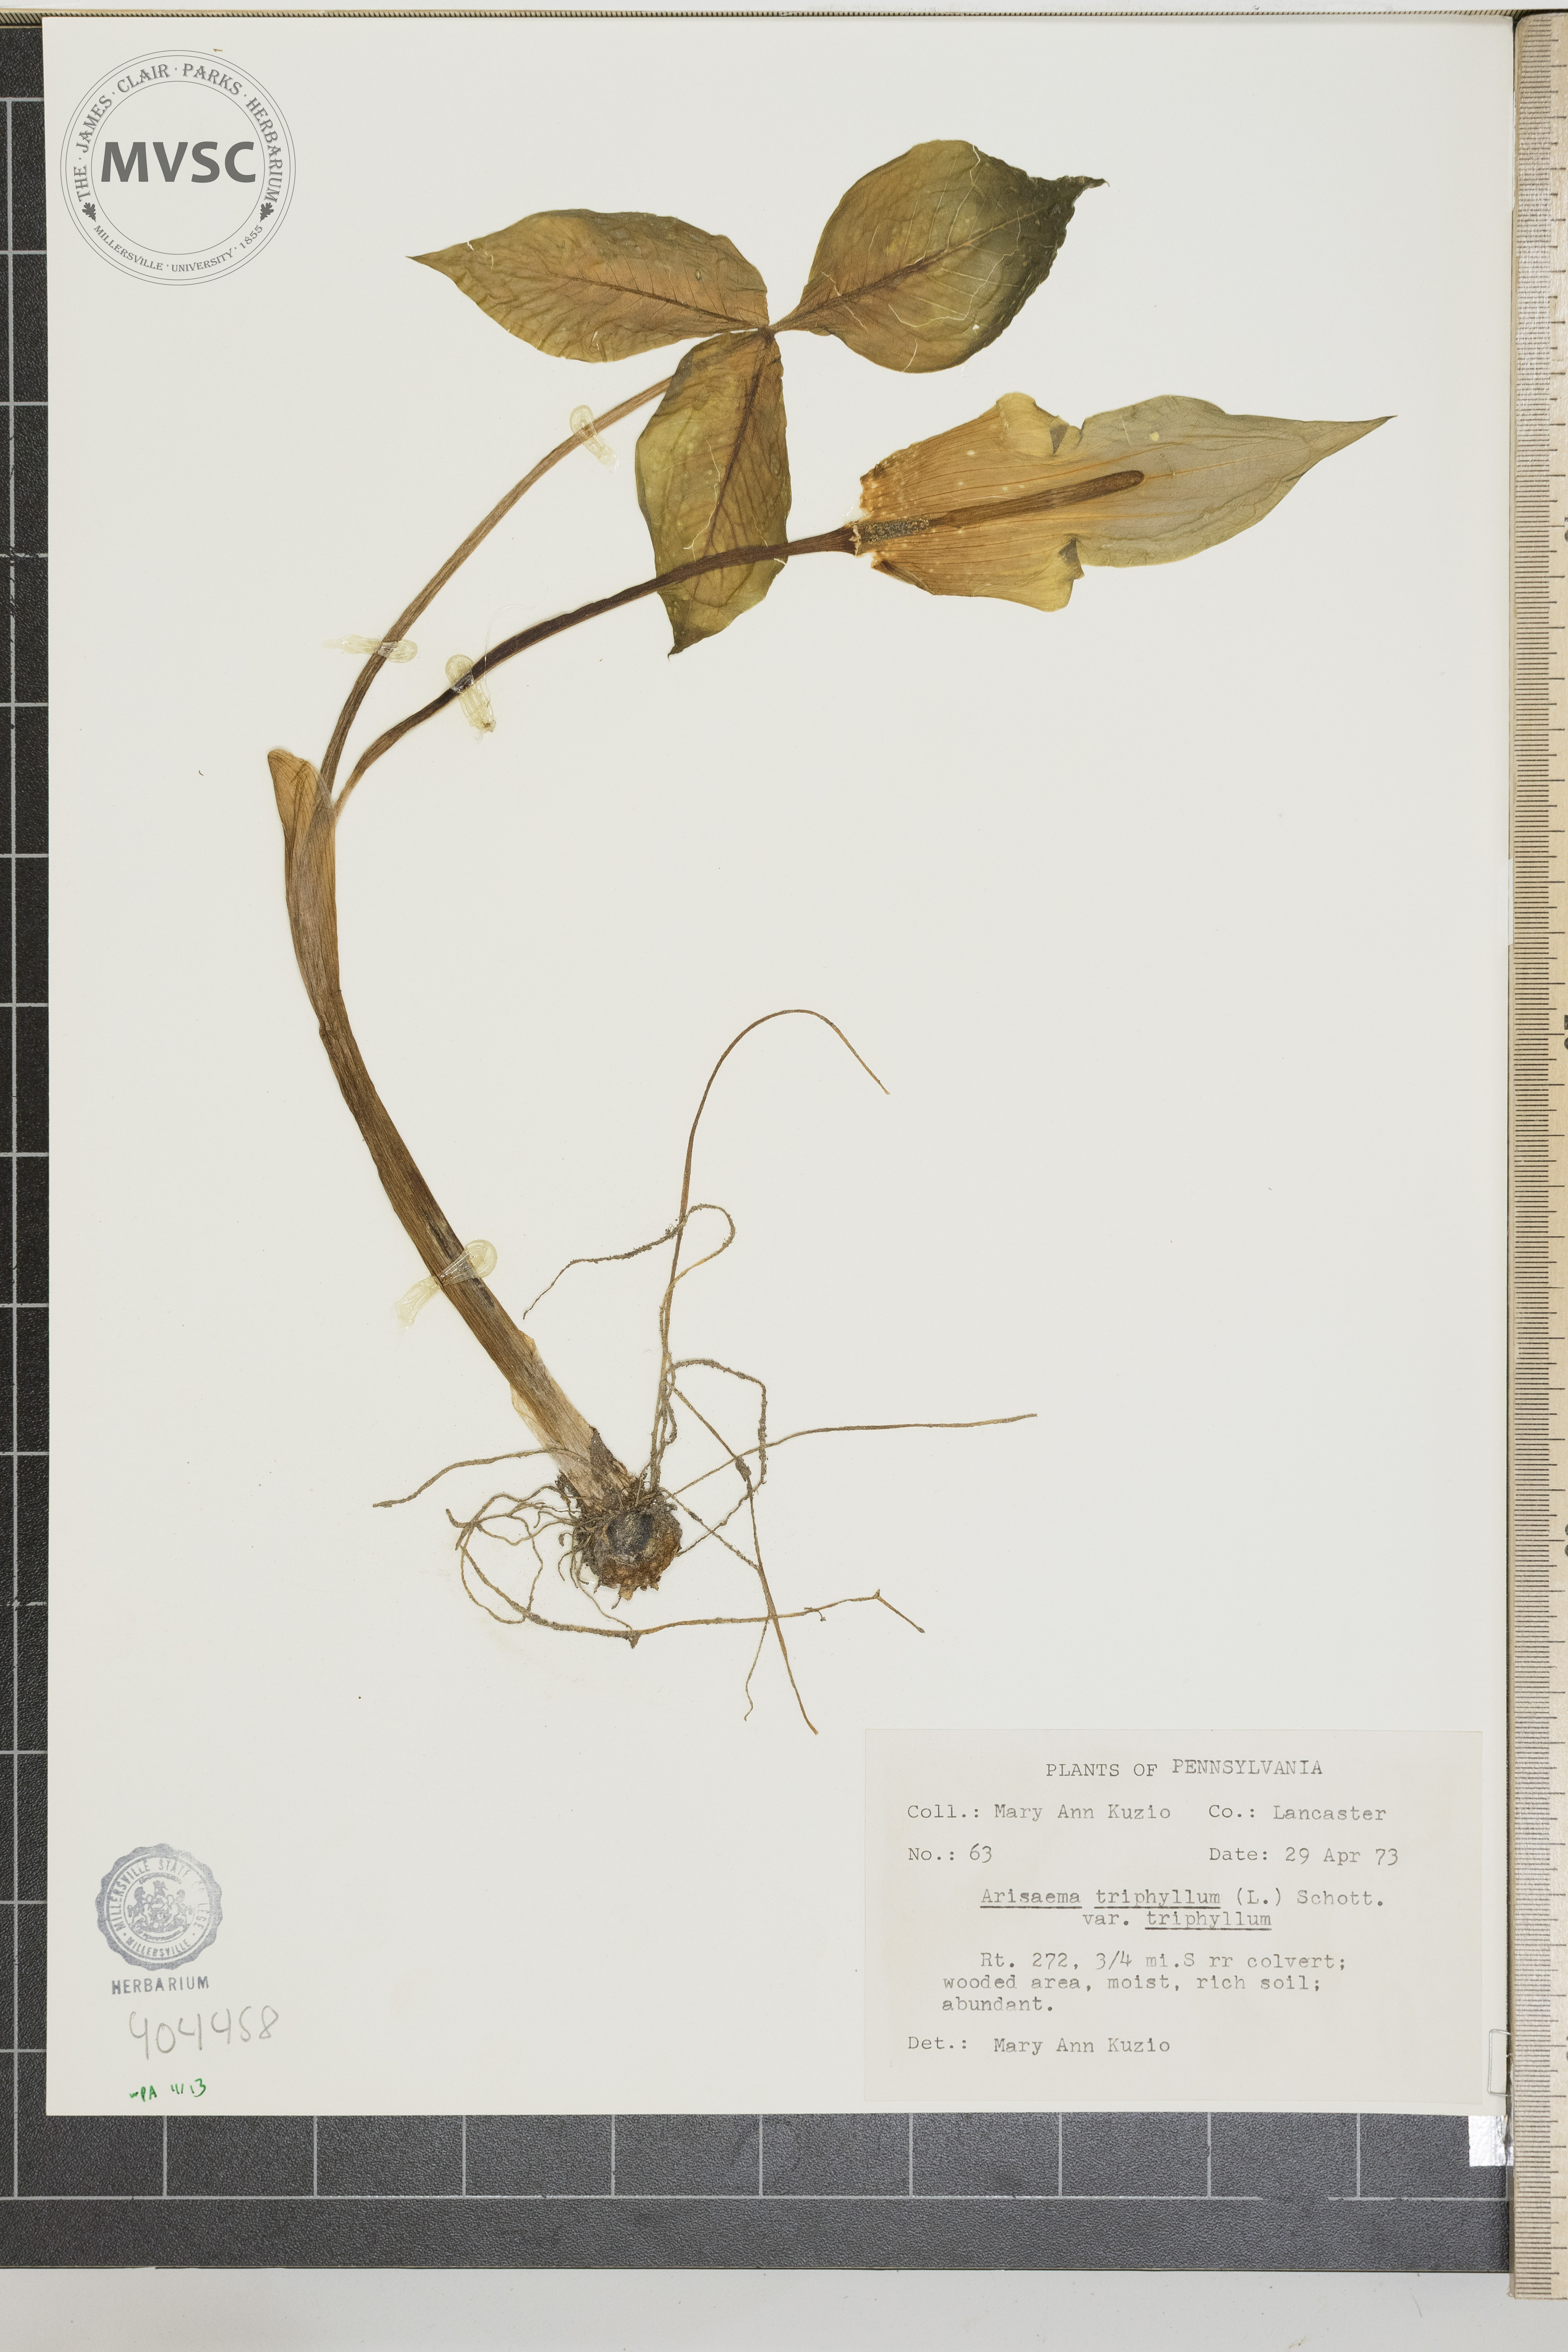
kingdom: Plantae
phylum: Tracheophyta
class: Liliopsida
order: Alismatales
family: Araceae
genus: Arisaema
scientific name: Arisaema triphyllum
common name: Jack-in-the-Pulpit
